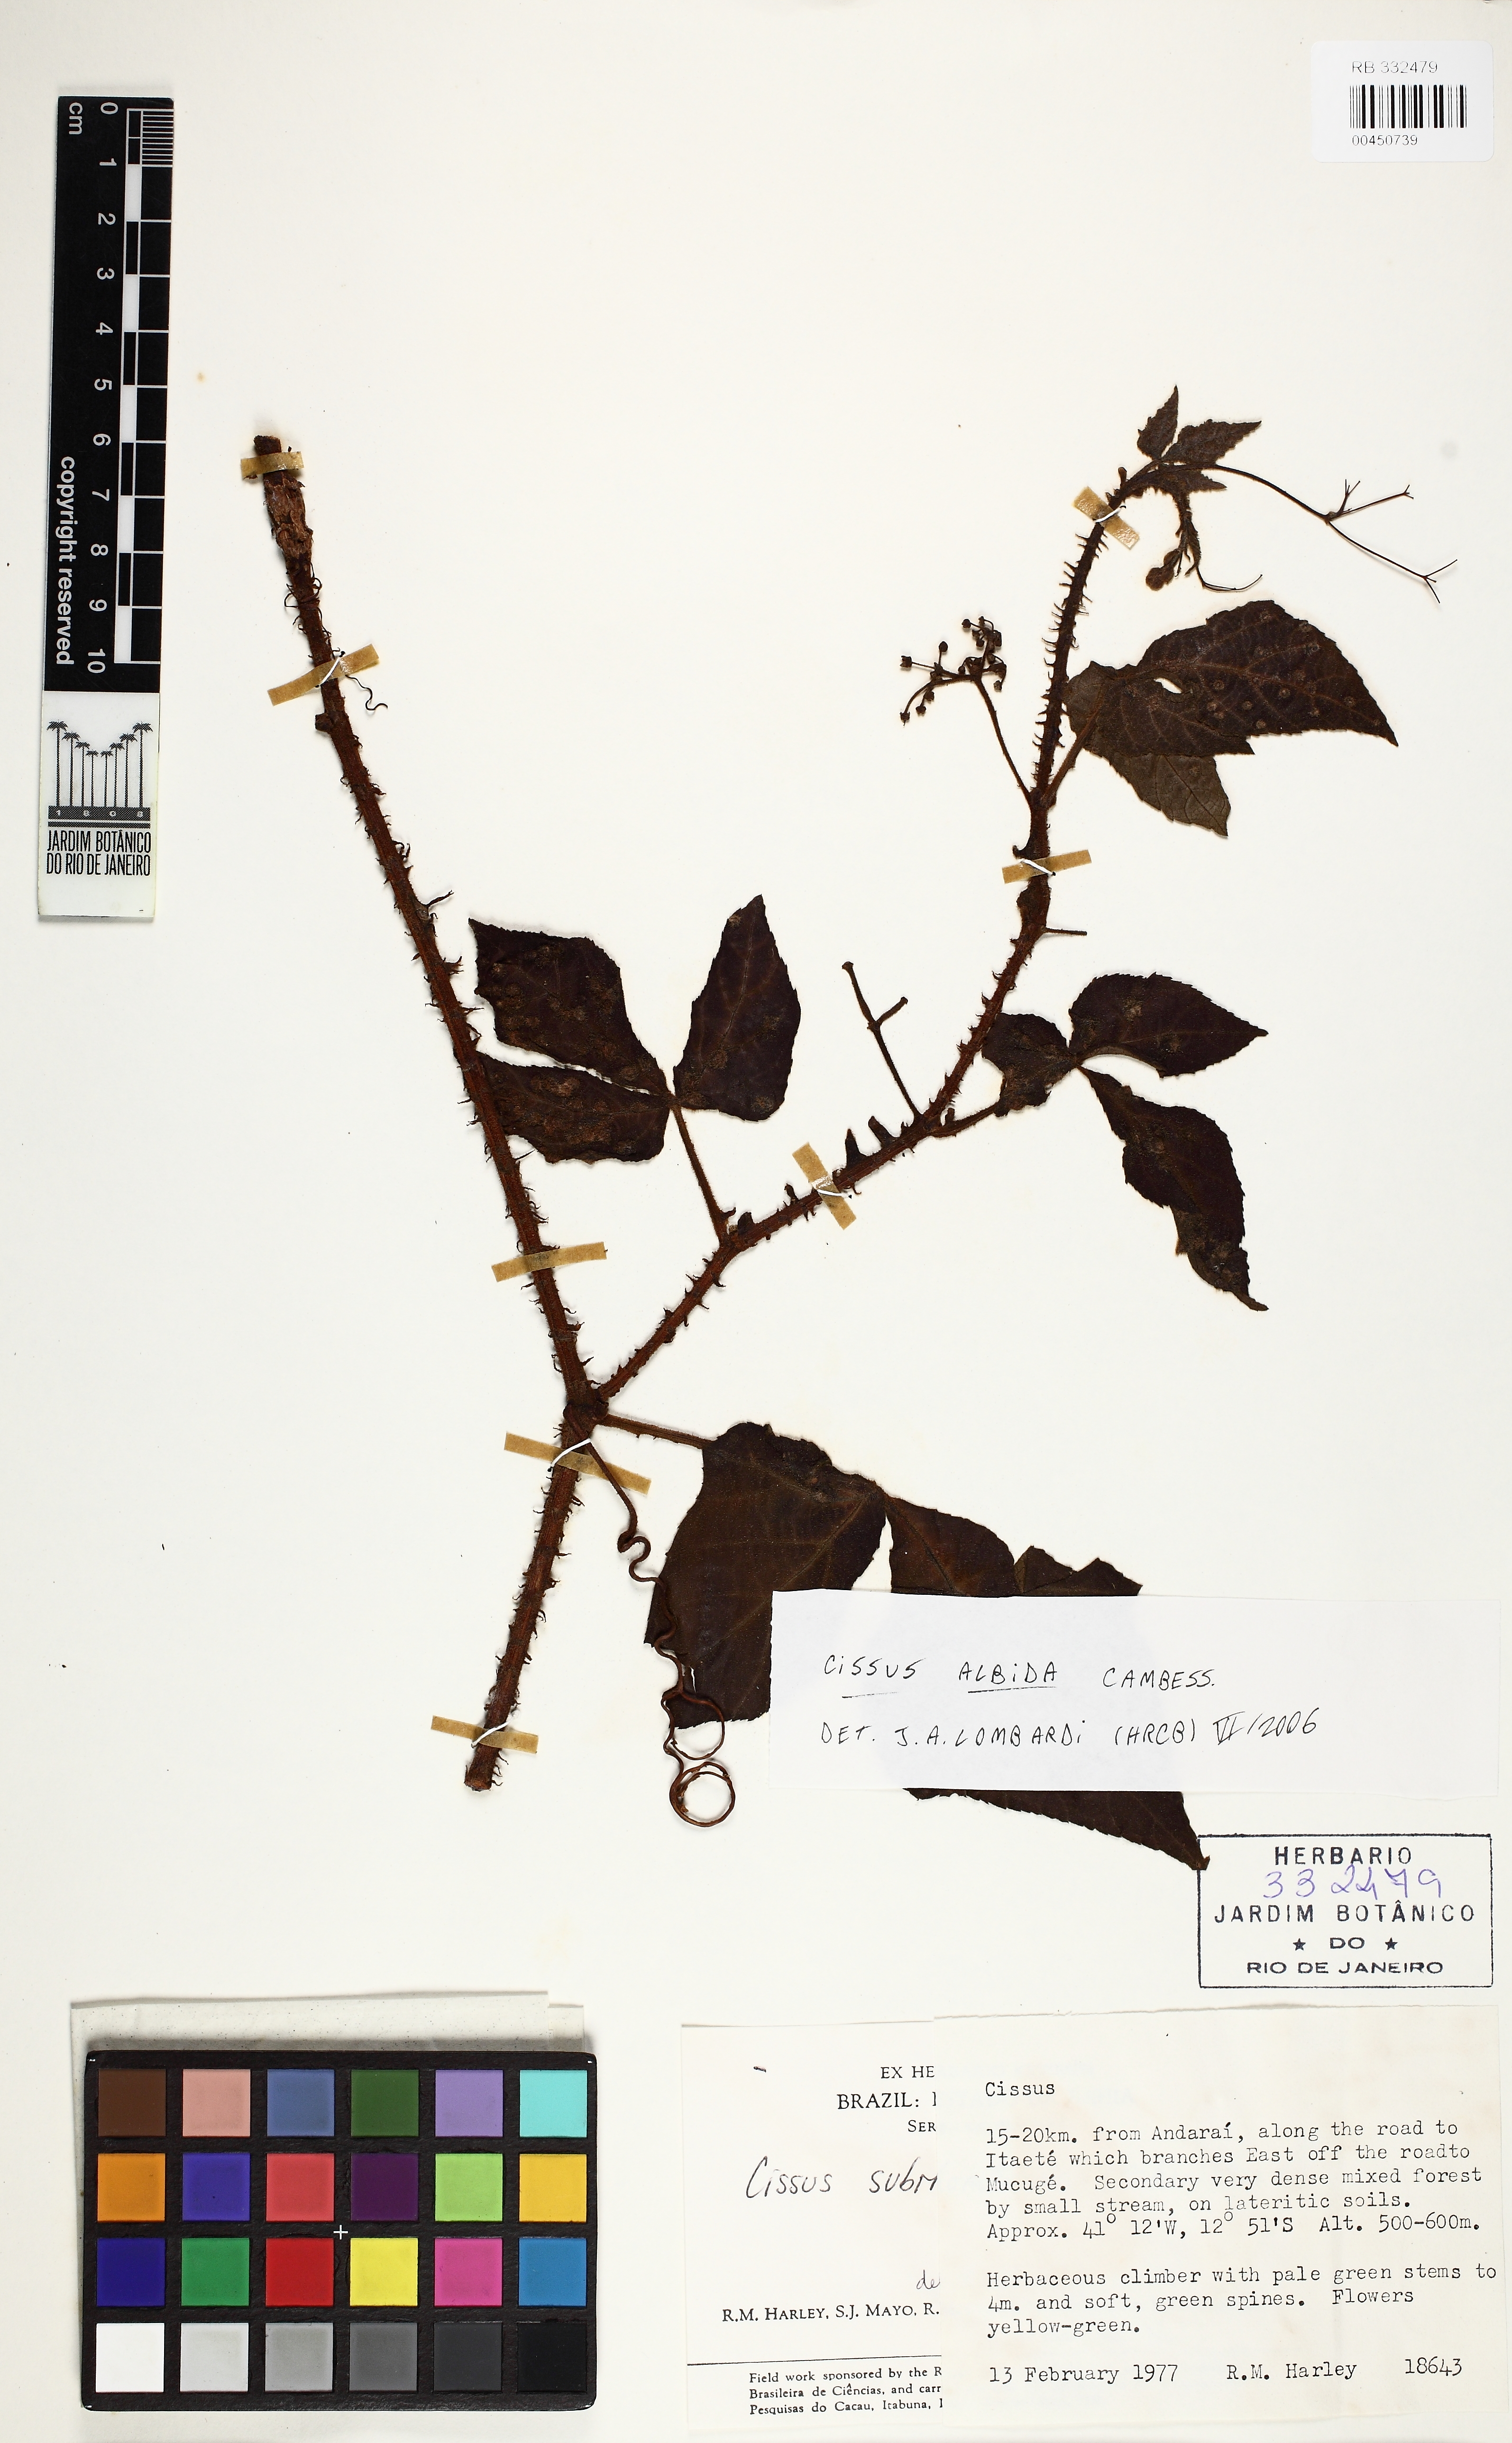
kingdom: Plantae
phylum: Tracheophyta
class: Magnoliopsida
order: Vitales
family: Vitaceae
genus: Cissus
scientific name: Cissus albida
